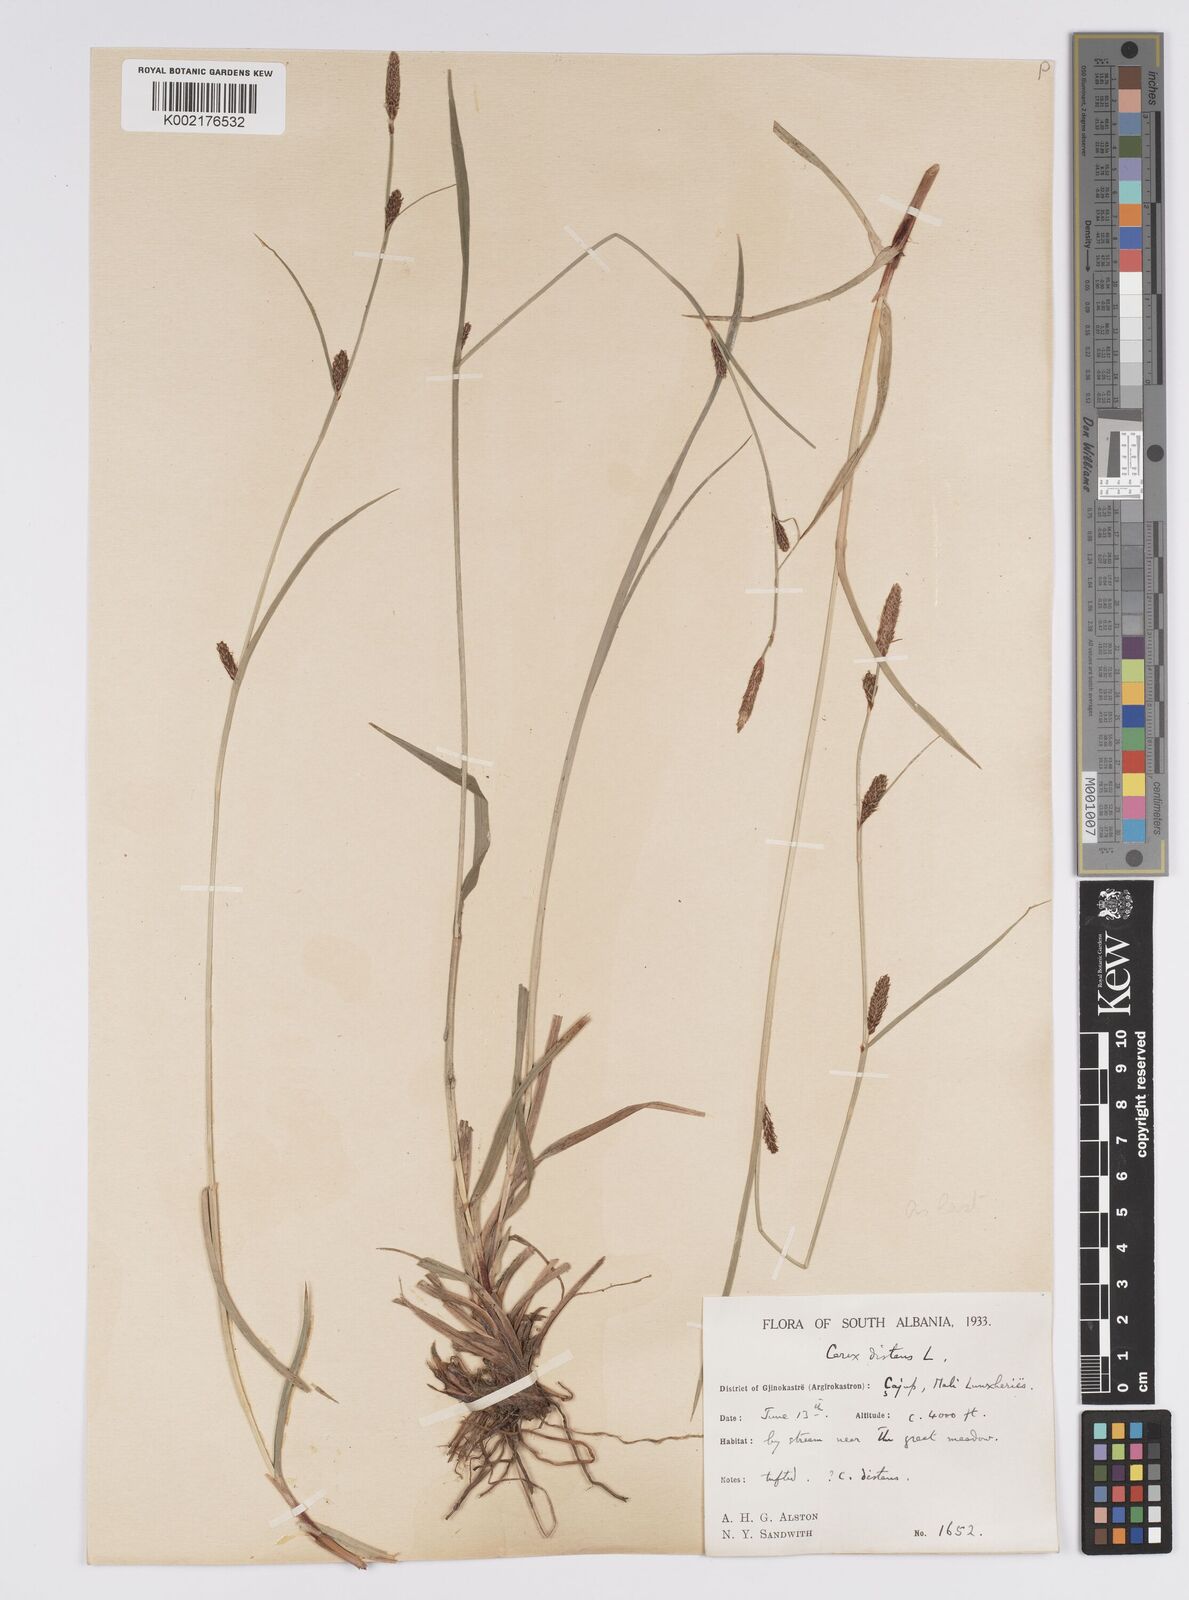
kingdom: Plantae
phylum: Tracheophyta
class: Liliopsida
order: Poales
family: Cyperaceae
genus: Carex
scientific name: Carex distans
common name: Distant sedge
